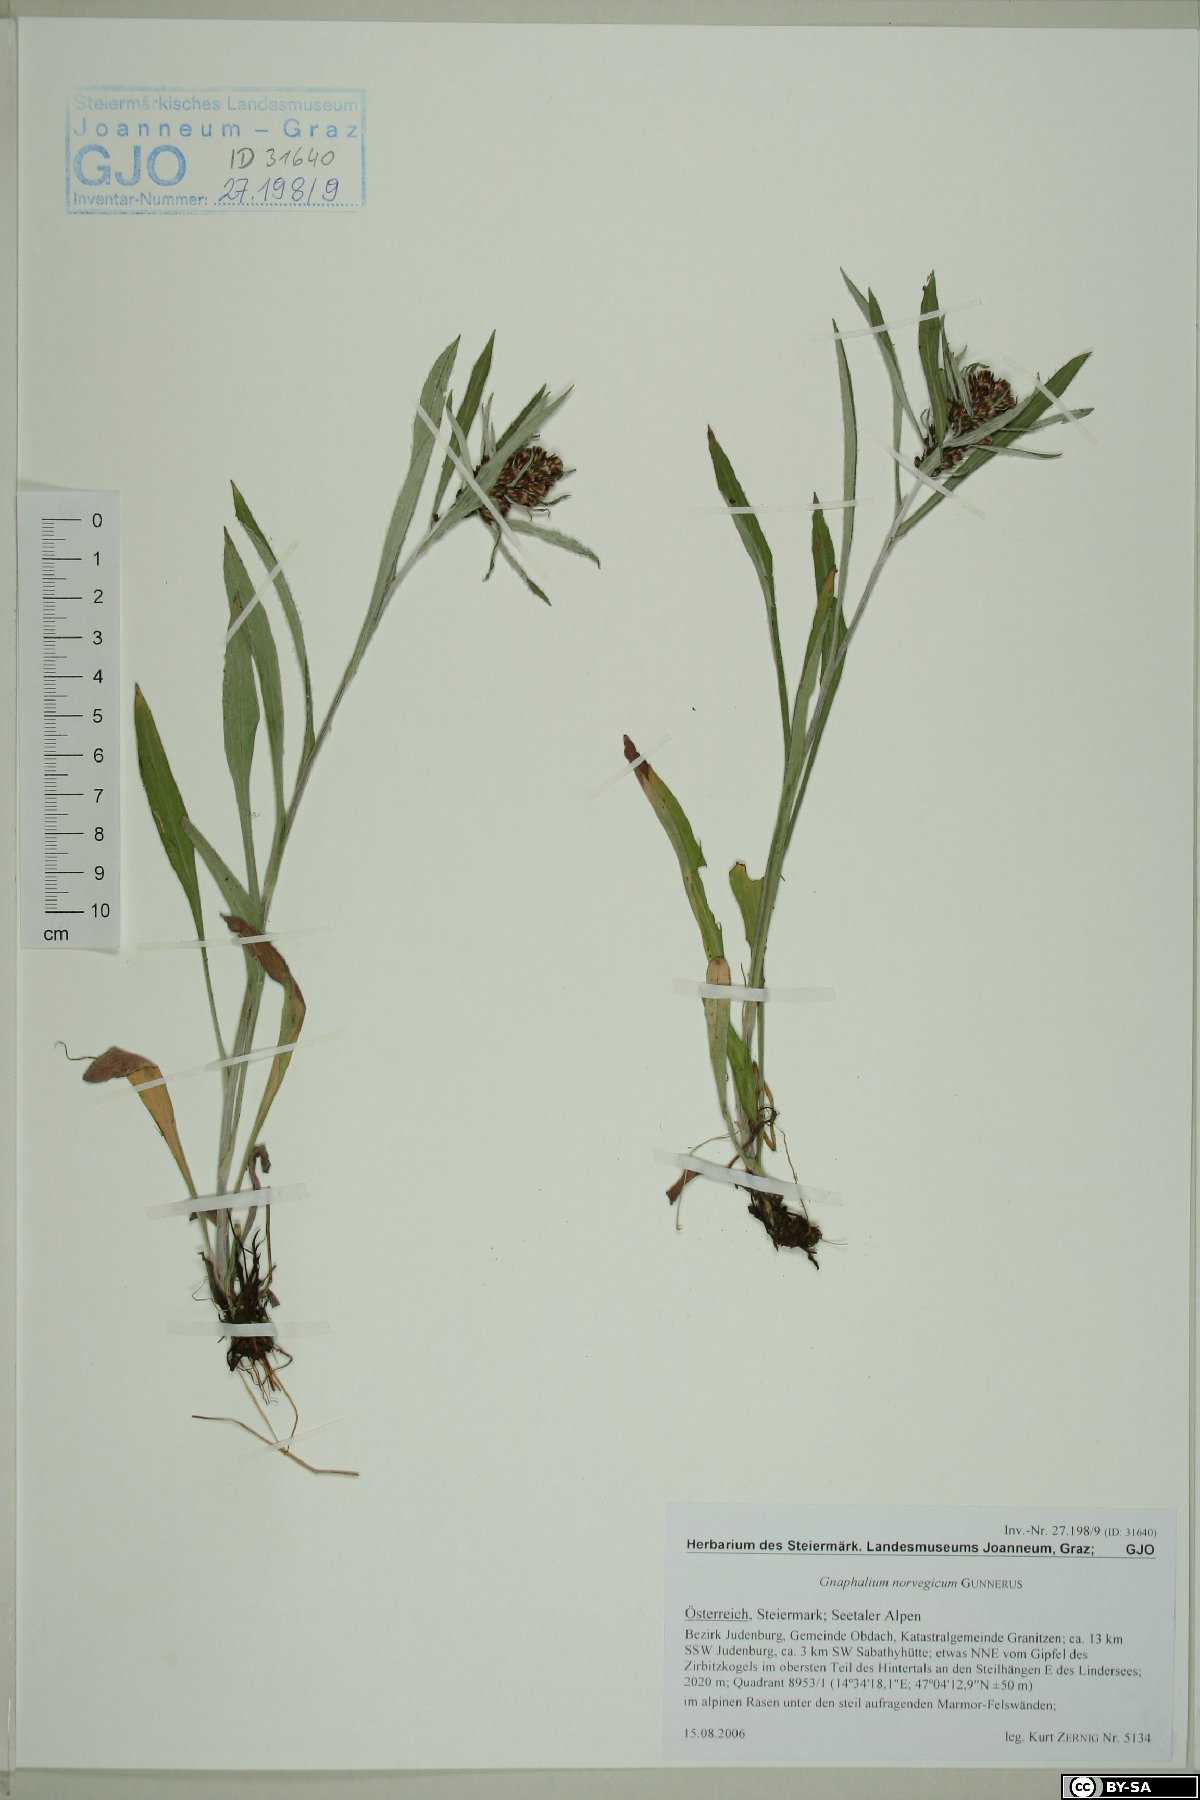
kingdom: Plantae
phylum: Tracheophyta
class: Magnoliopsida
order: Asterales
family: Asteraceae
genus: Omalotheca
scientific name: Omalotheca norvegica
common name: Norwegian arctic-cudweed
